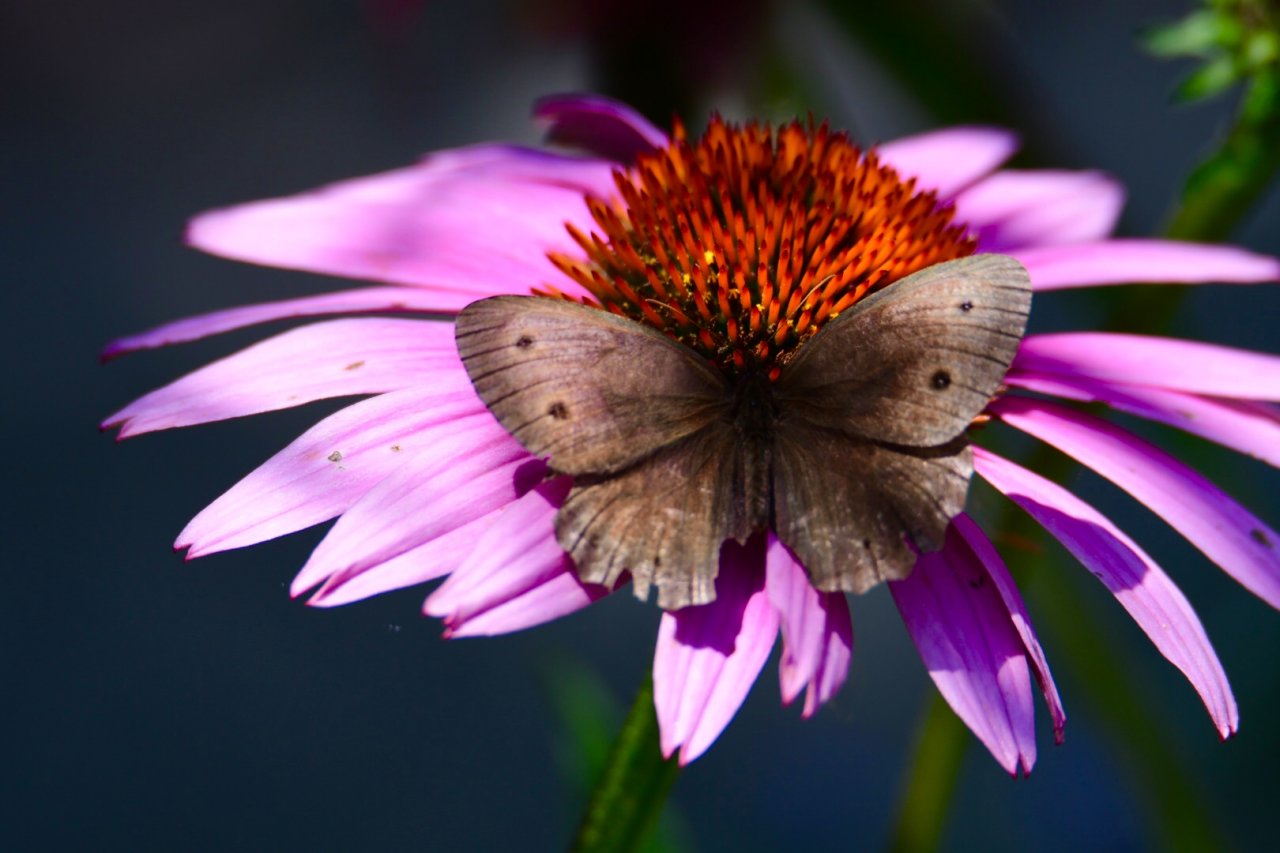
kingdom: Animalia
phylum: Arthropoda
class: Insecta
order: Lepidoptera
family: Nymphalidae
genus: Cercyonis
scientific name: Cercyonis pegala
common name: Common Wood-Nymph
